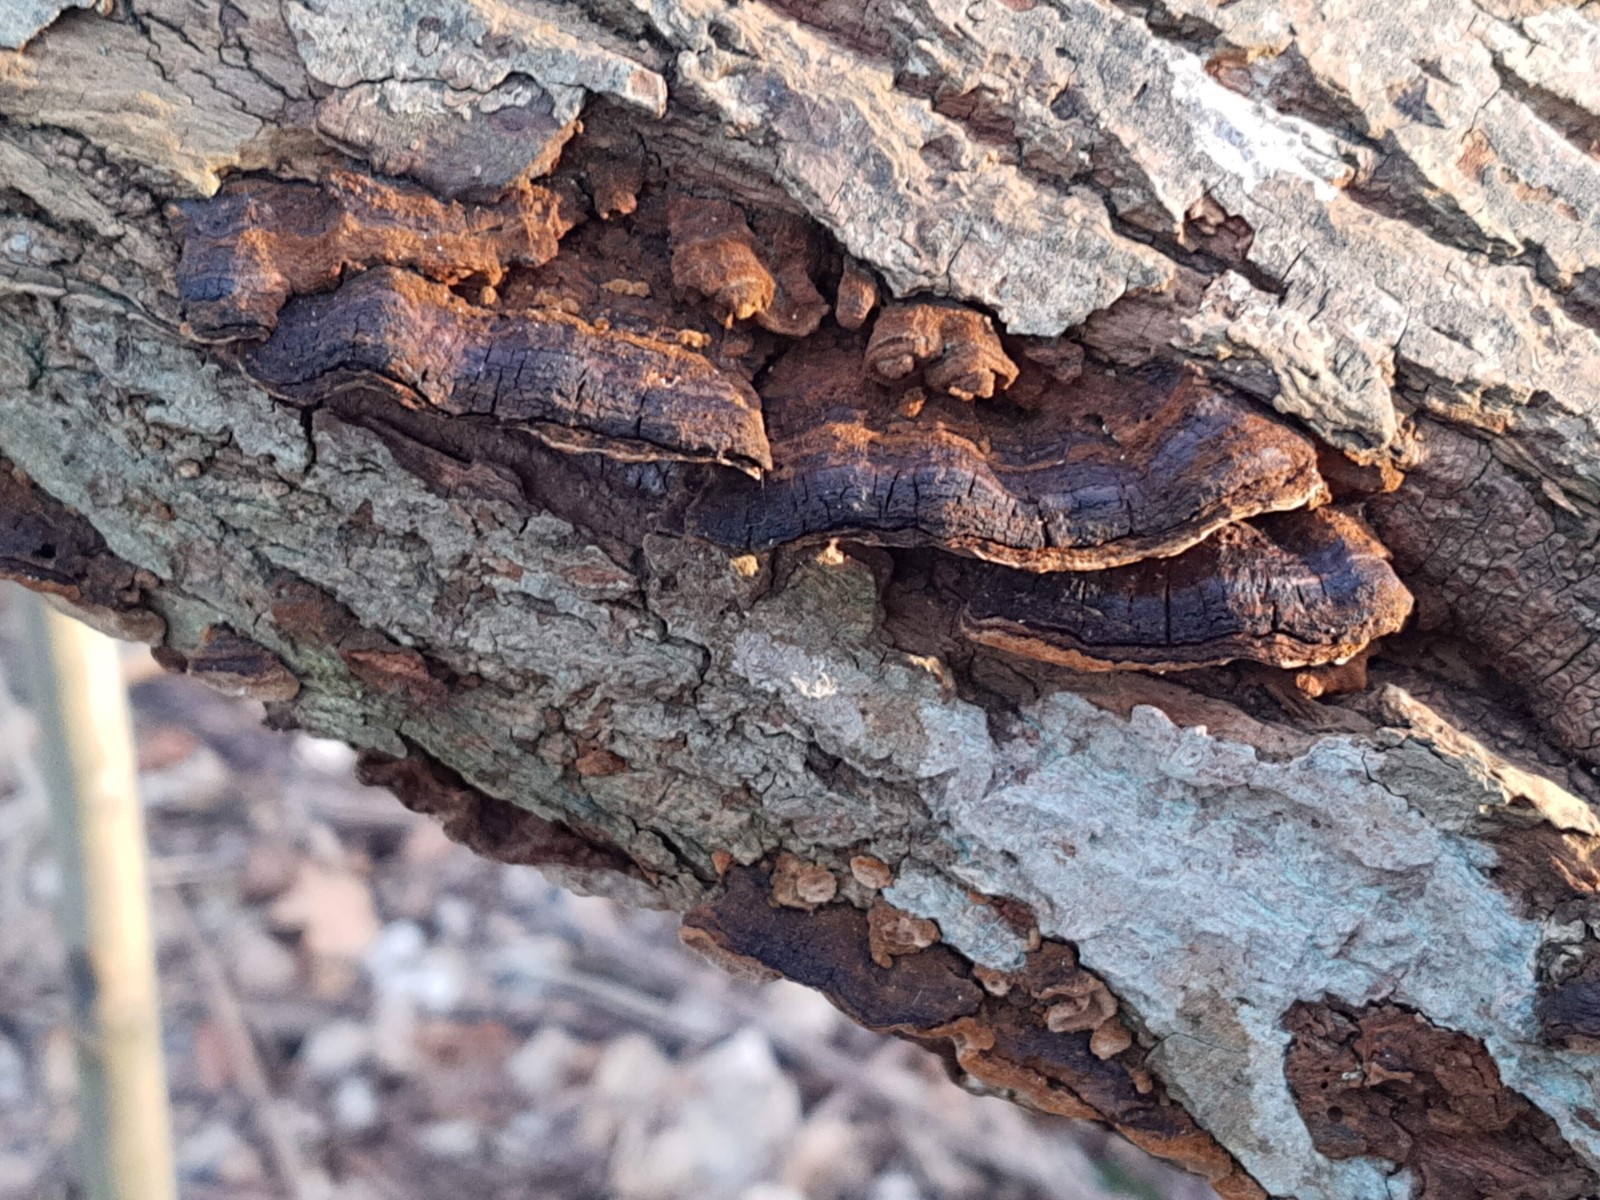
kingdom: Fungi
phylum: Basidiomycota
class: Agaricomycetes
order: Hymenochaetales
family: Hymenochaetaceae
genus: Phellinopsis
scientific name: Phellinopsis conchata
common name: pile-ildporesvamp
